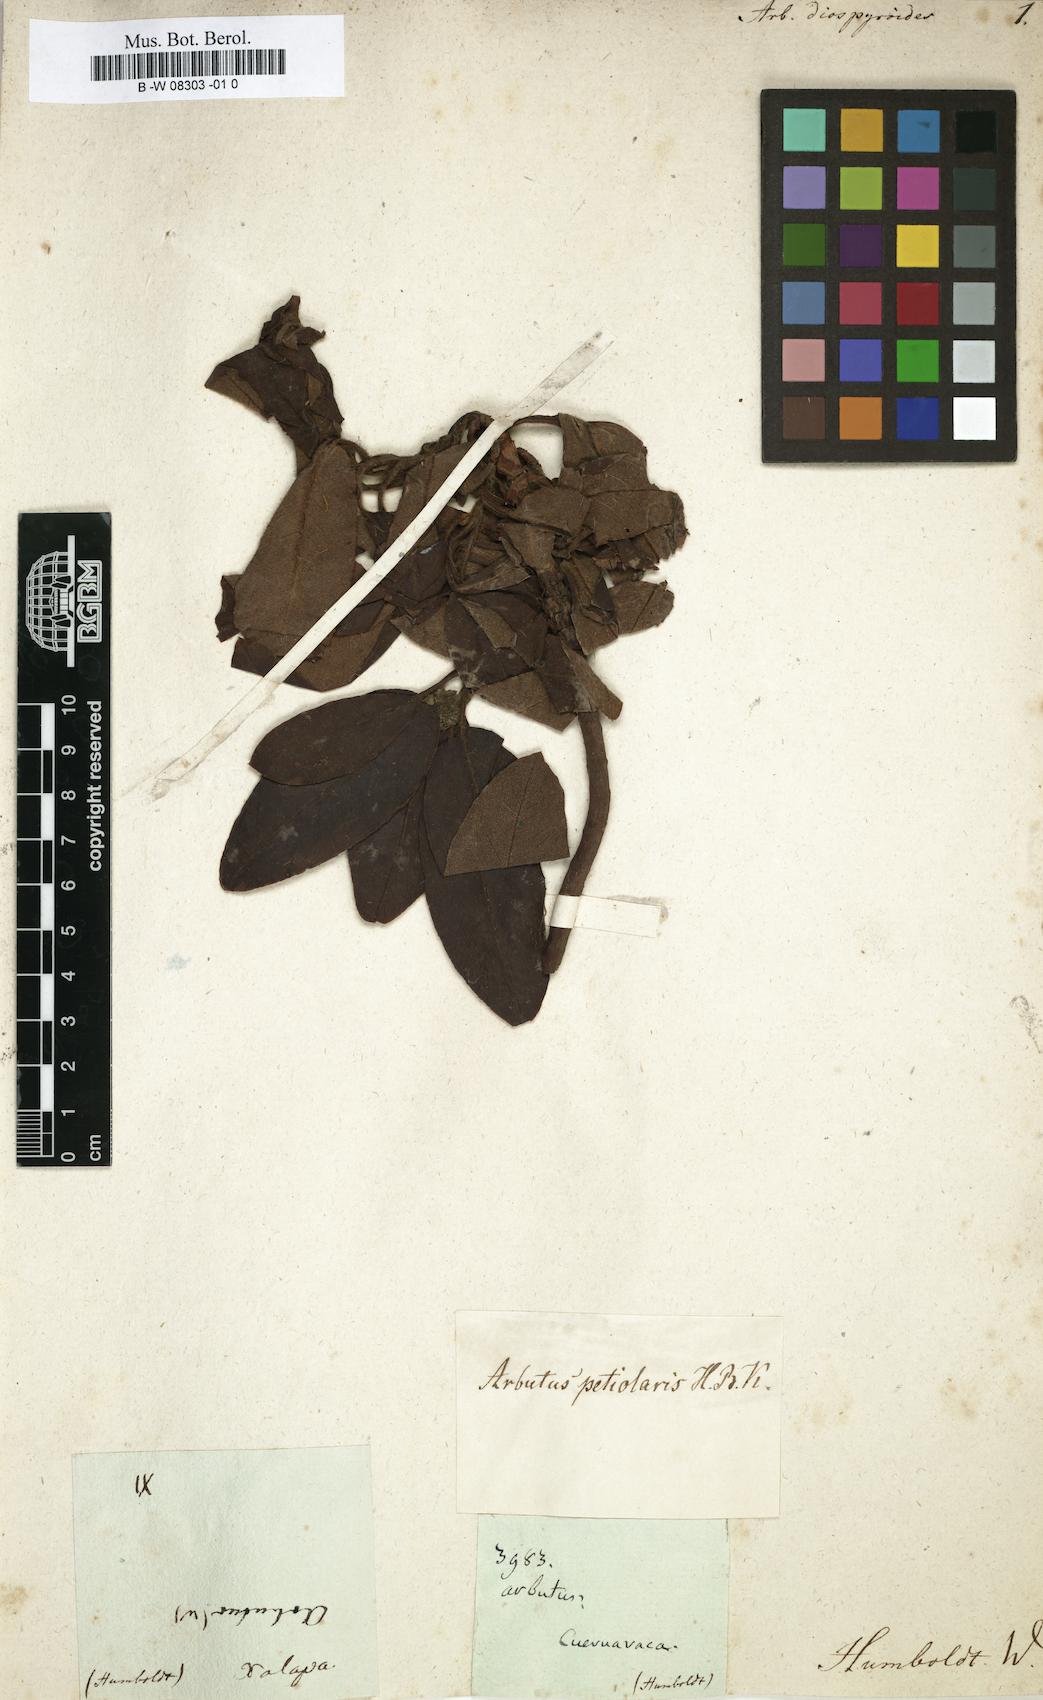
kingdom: Plantae
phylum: Tracheophyta
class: Magnoliopsida
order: Ericales
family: Ericaceae
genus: Arbutus
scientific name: Arbutus
